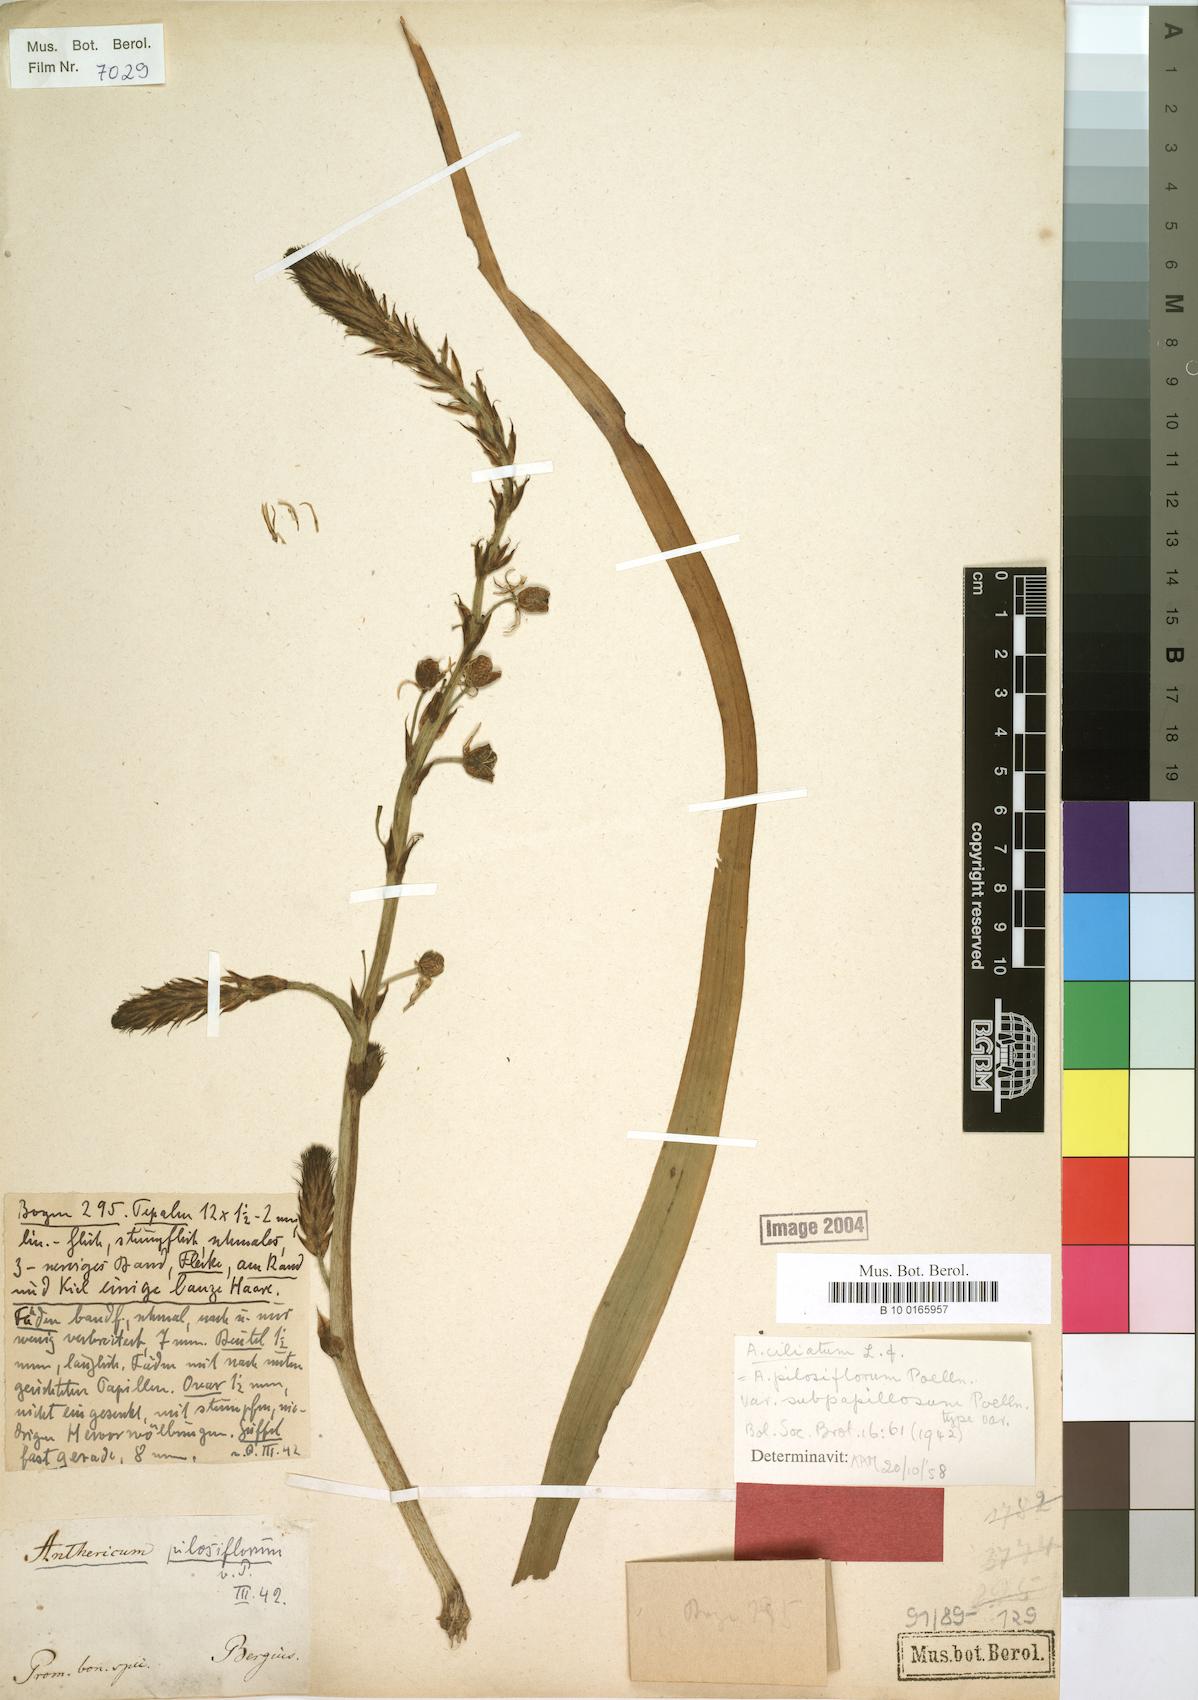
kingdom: Plantae
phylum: Tracheophyta
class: Liliopsida
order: Asparagales
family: Asphodelaceae
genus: Trachyandra
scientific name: Trachyandra ciliata
